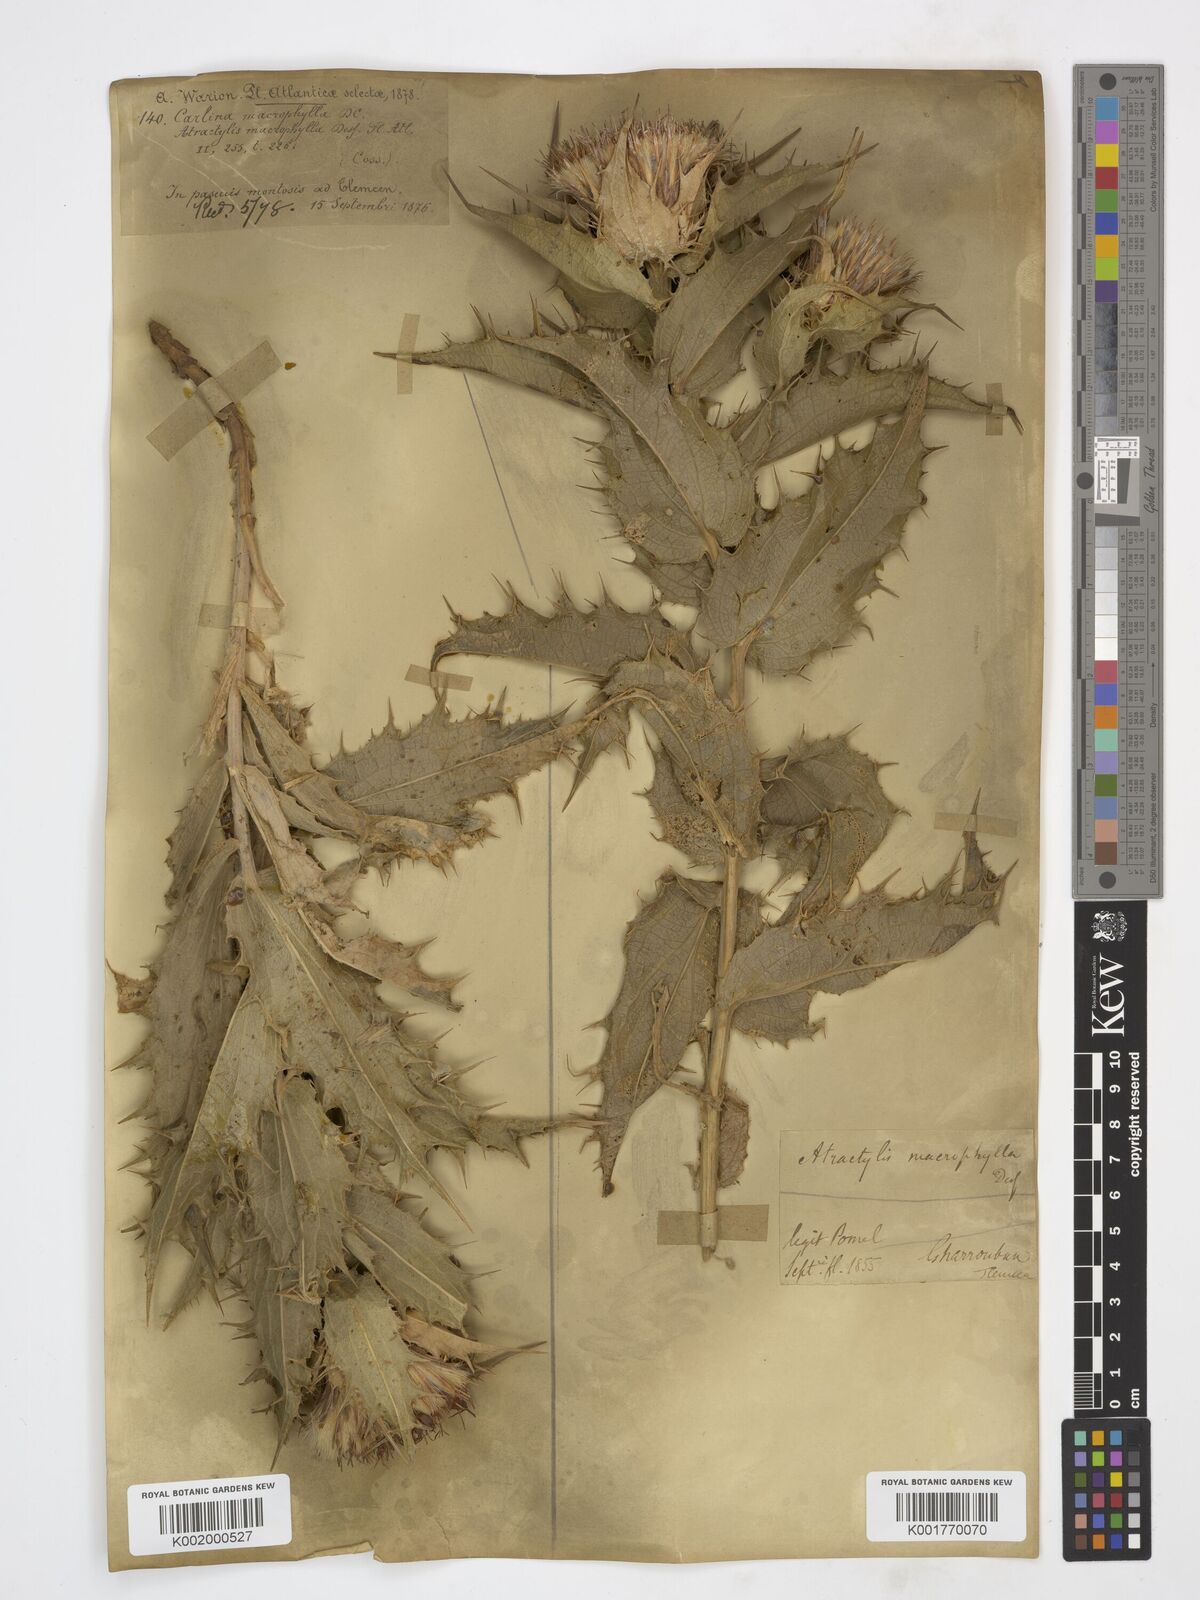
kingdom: Plantae
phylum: Tracheophyta
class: Magnoliopsida
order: Asterales
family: Asteraceae
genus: Chamaeleon
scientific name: Chamaeleon macrophyllus
